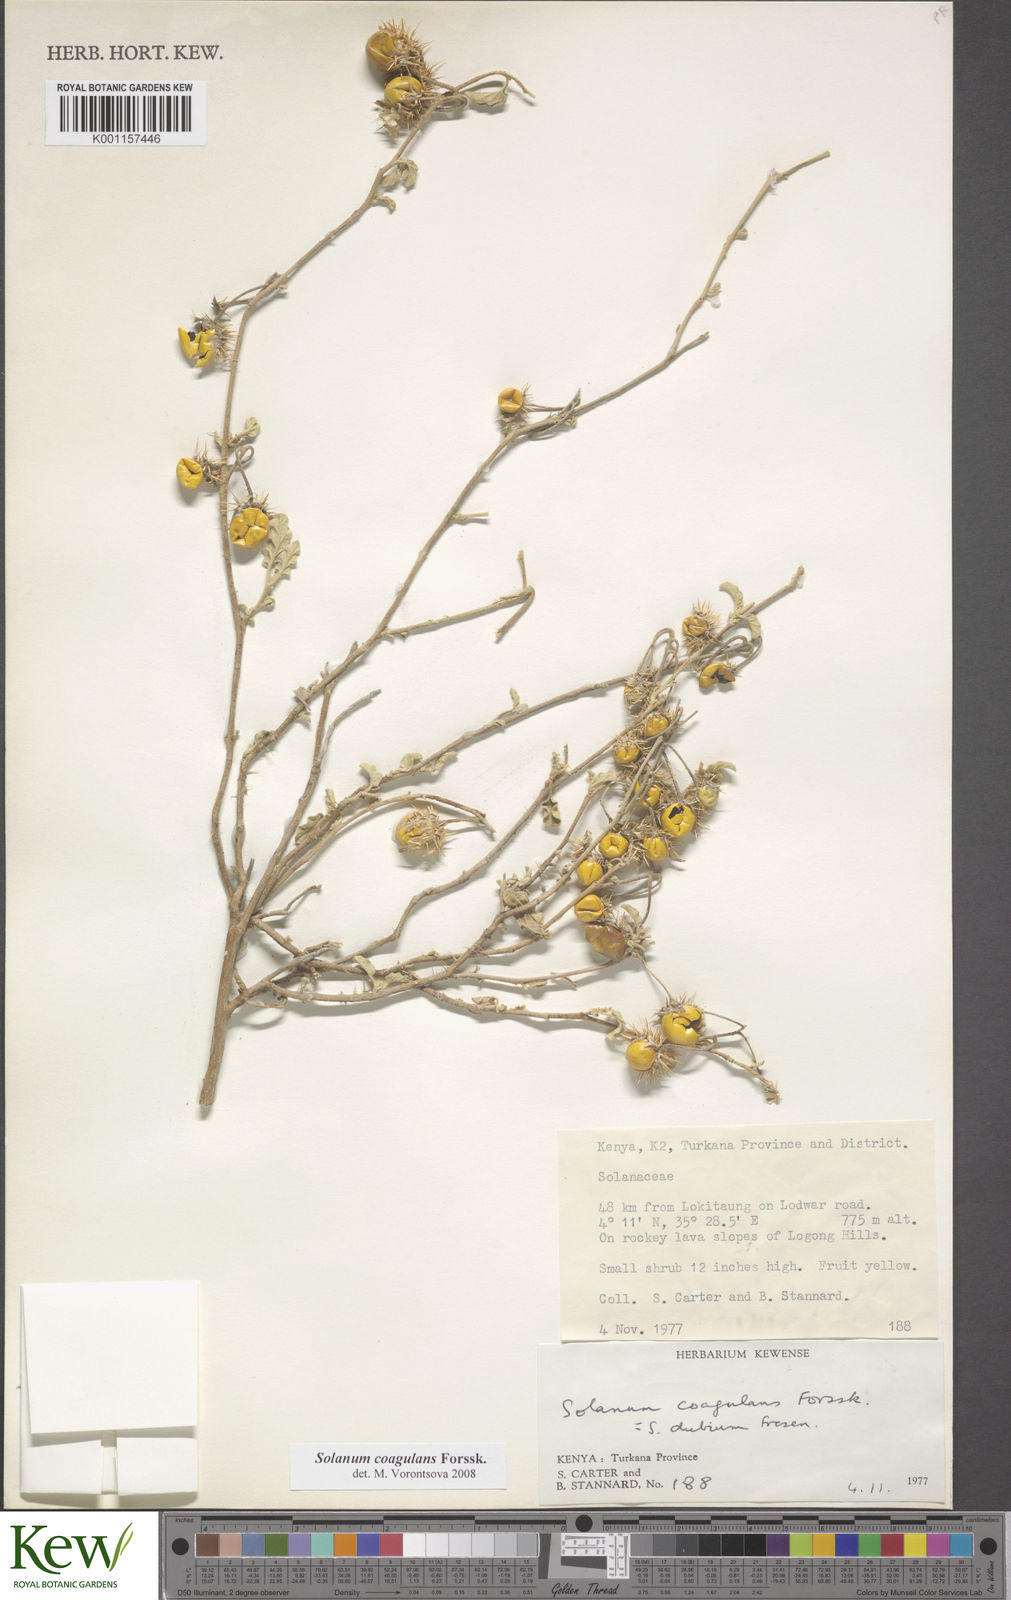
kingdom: Plantae
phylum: Tracheophyta
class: Magnoliopsida
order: Solanales
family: Solanaceae
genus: Solanum
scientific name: Solanum coagulans
